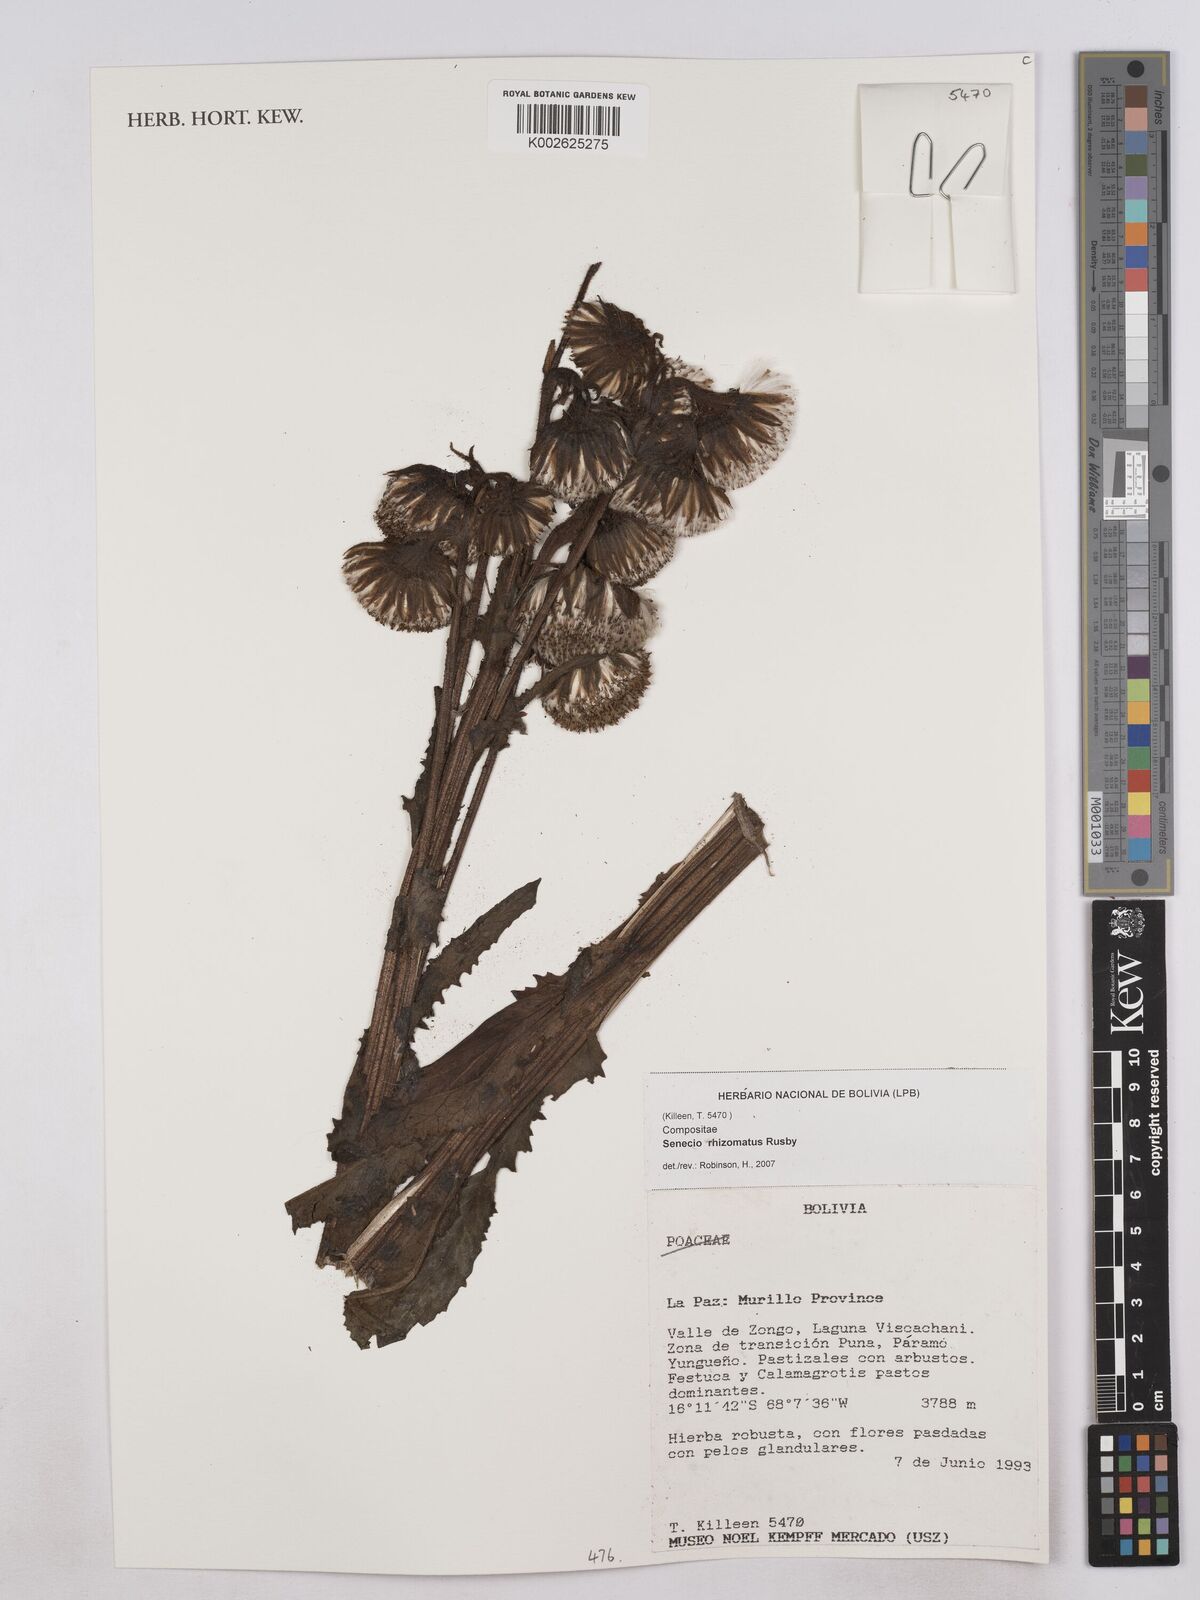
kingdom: Plantae
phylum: Tracheophyta
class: Magnoliopsida
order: Asterales
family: Asteraceae
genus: Senecio
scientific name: Senecio rhizomatus
